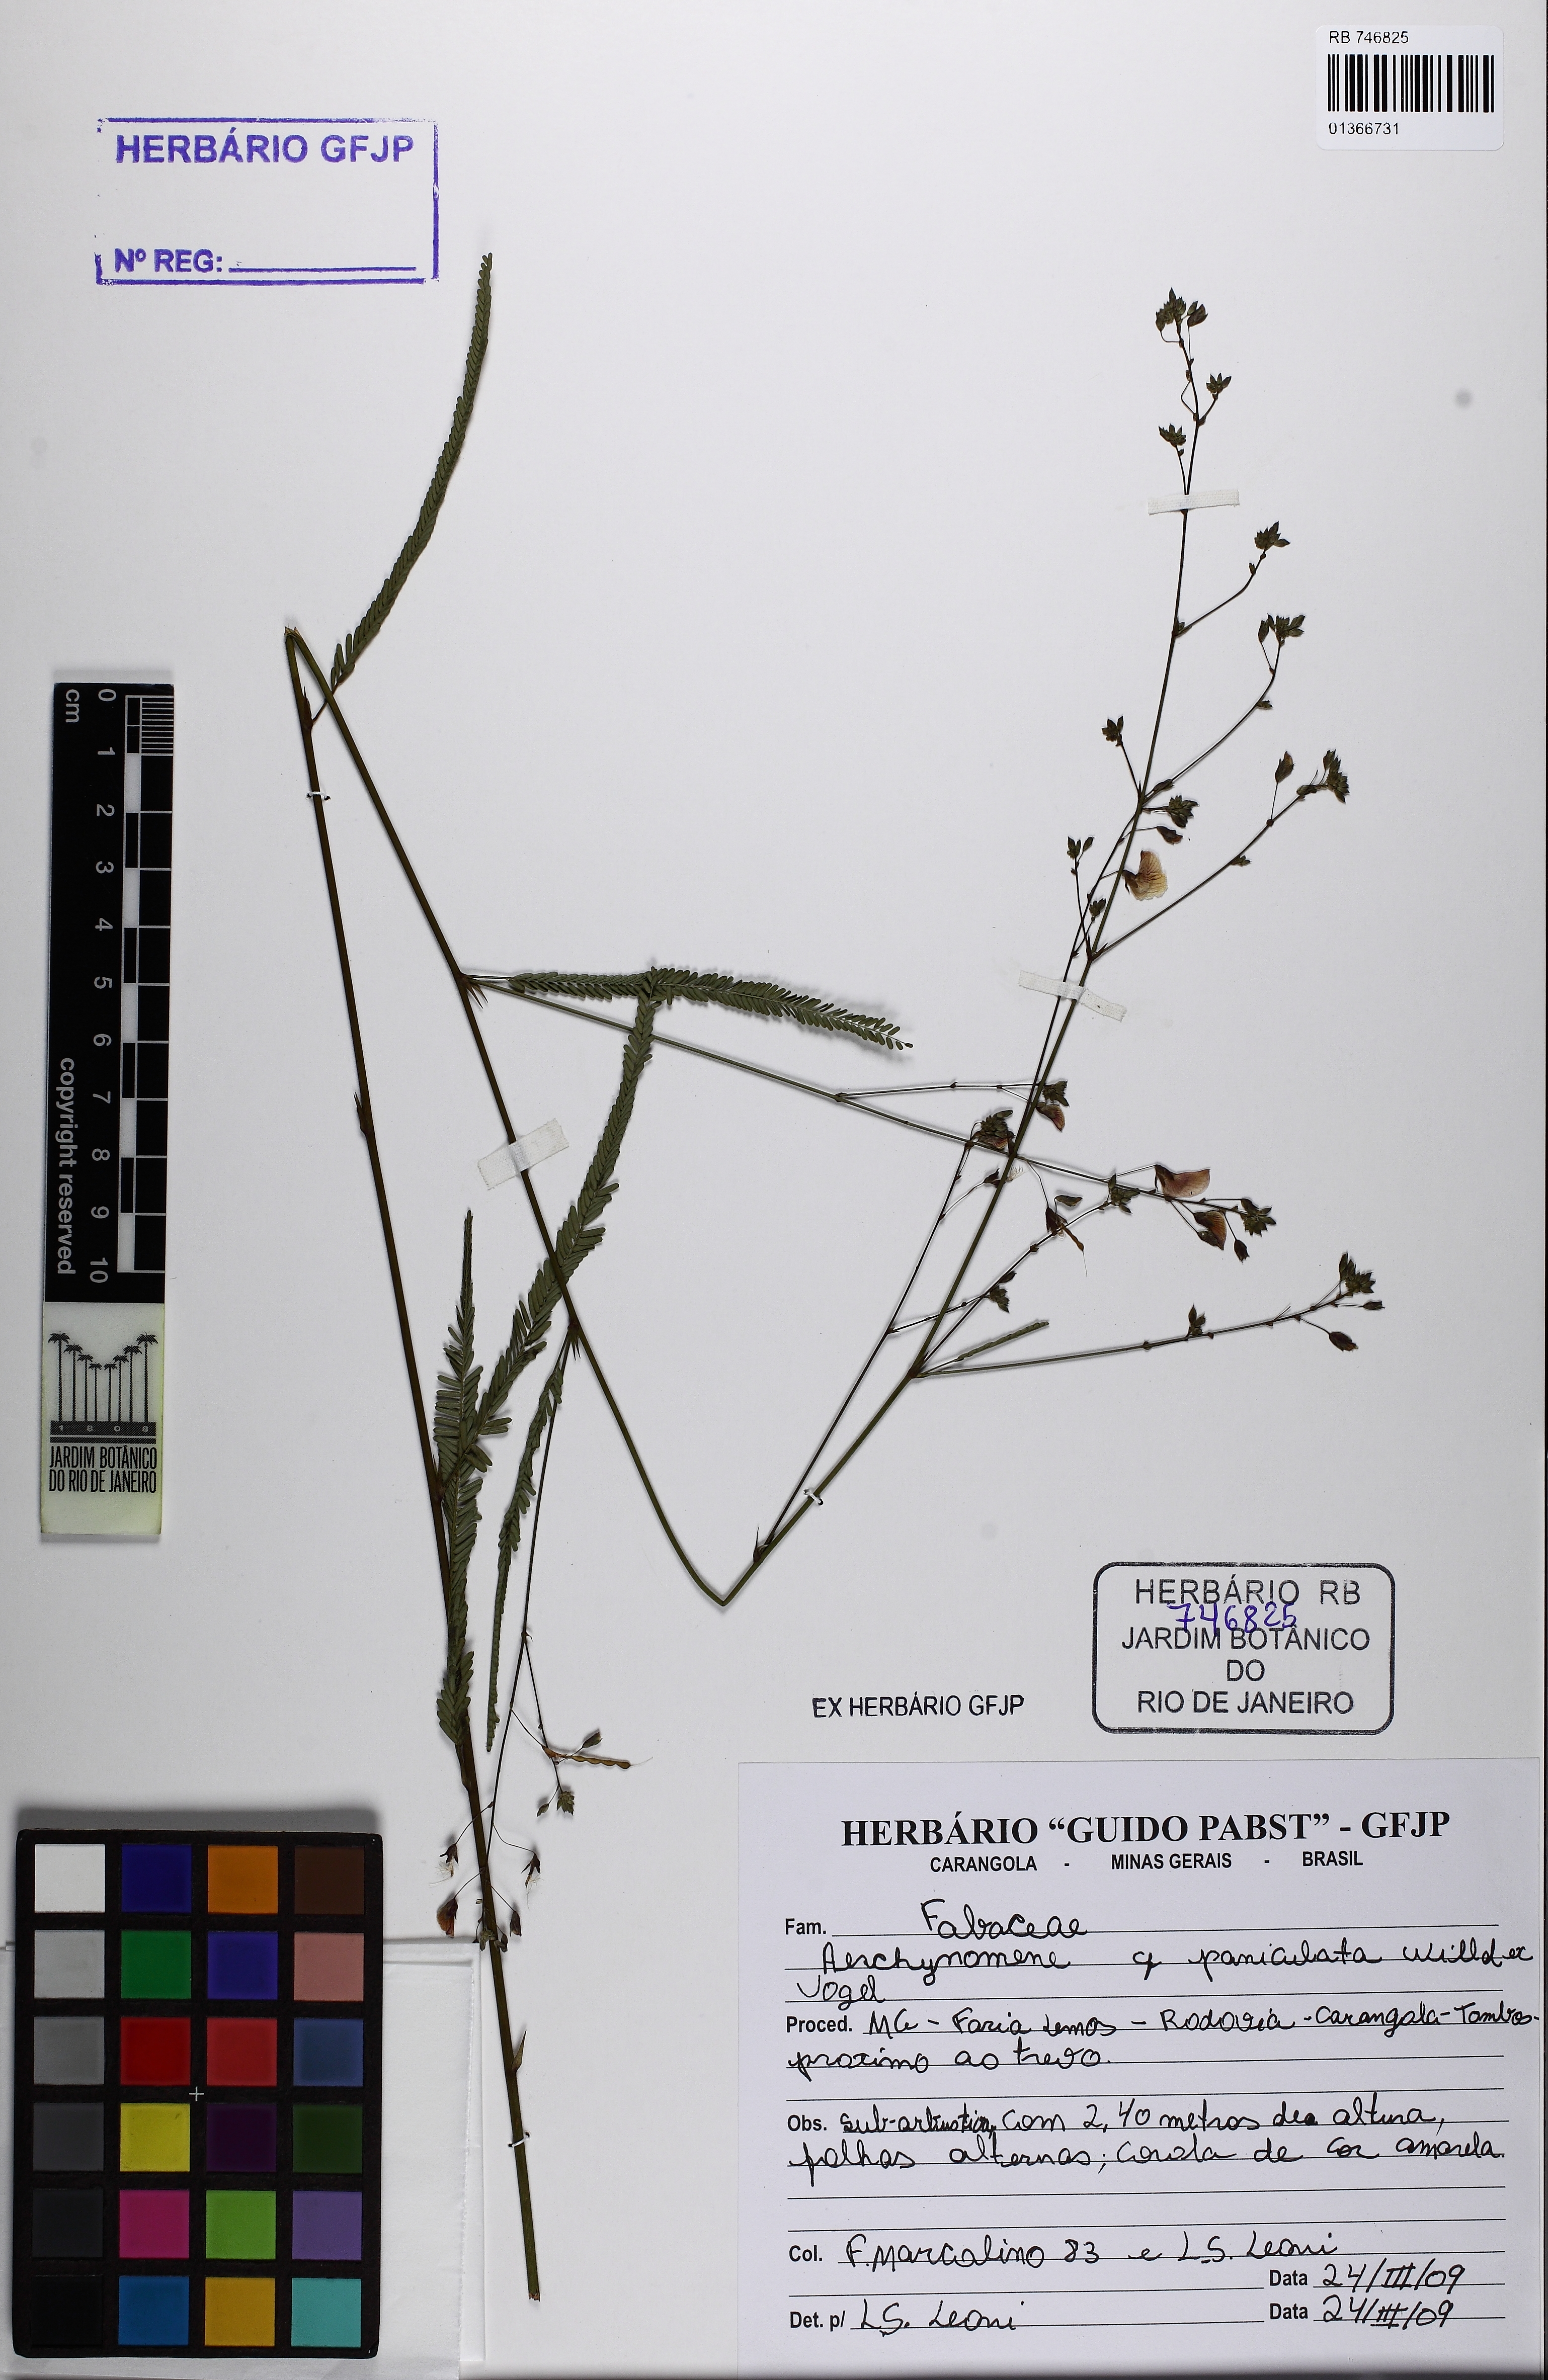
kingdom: Plantae
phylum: Tracheophyta
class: Magnoliopsida
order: Fabales
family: Fabaceae
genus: Ctenodon
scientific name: Ctenodon paniculatus
